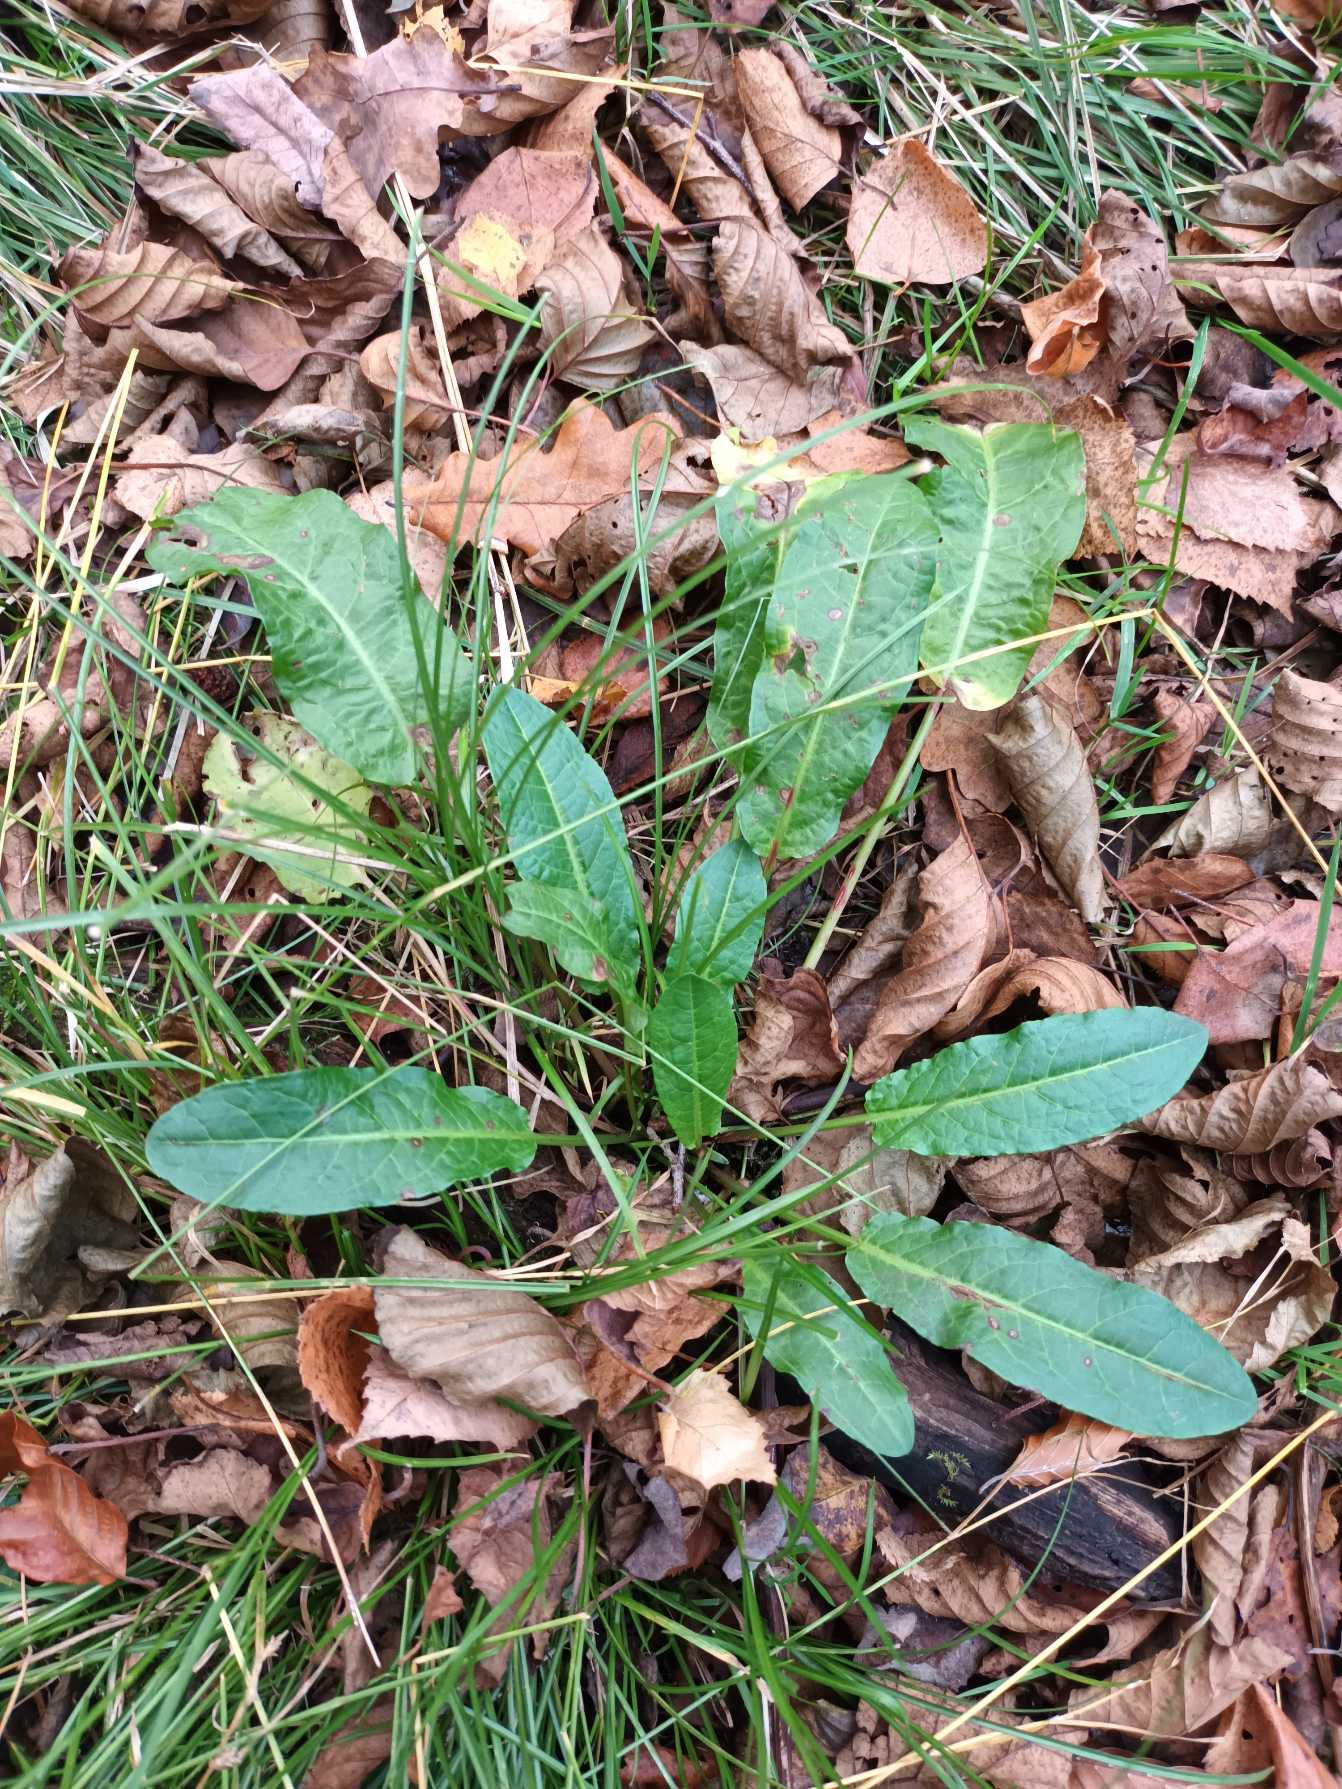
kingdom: Plantae
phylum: Tracheophyta
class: Magnoliopsida
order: Caryophyllales
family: Polygonaceae
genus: Rumex
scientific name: Rumex sanguineus
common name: Skov-skræppe
